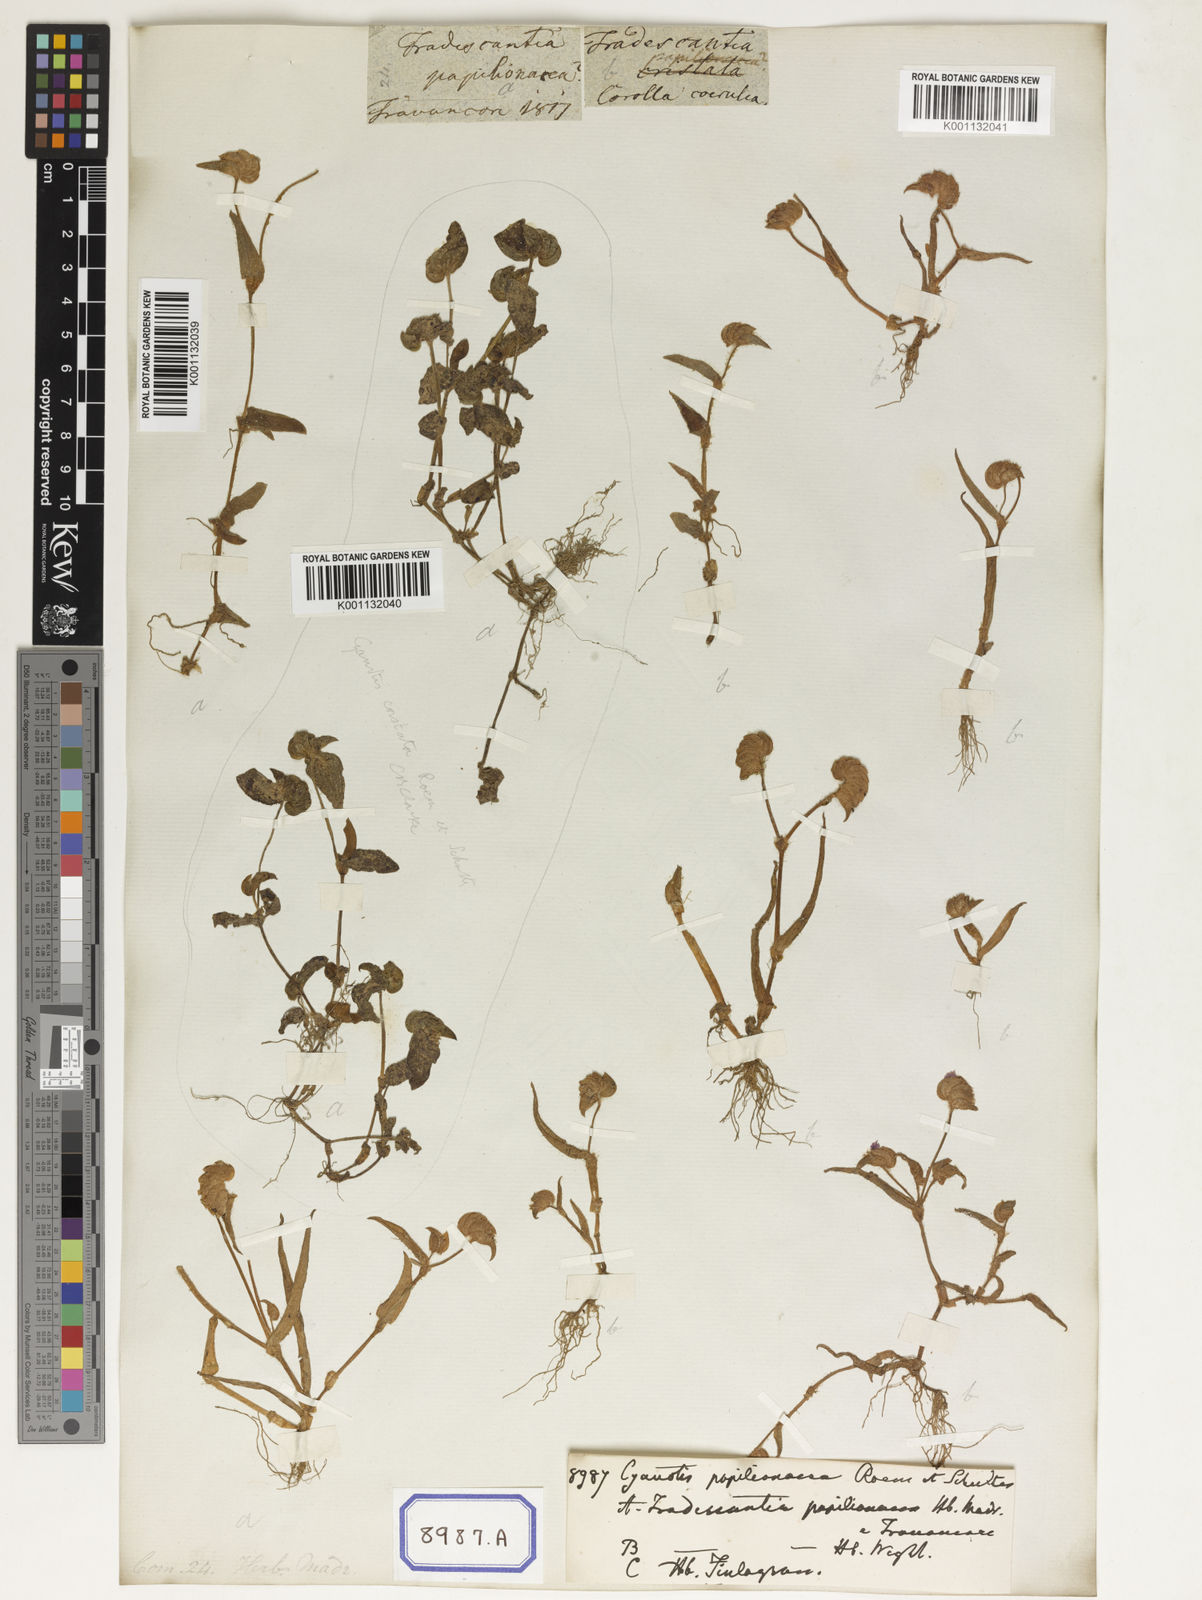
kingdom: Plantae
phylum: Tracheophyta
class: Liliopsida
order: Commelinales
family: Commelinaceae
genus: Cyanotis
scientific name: Cyanotis cristata
